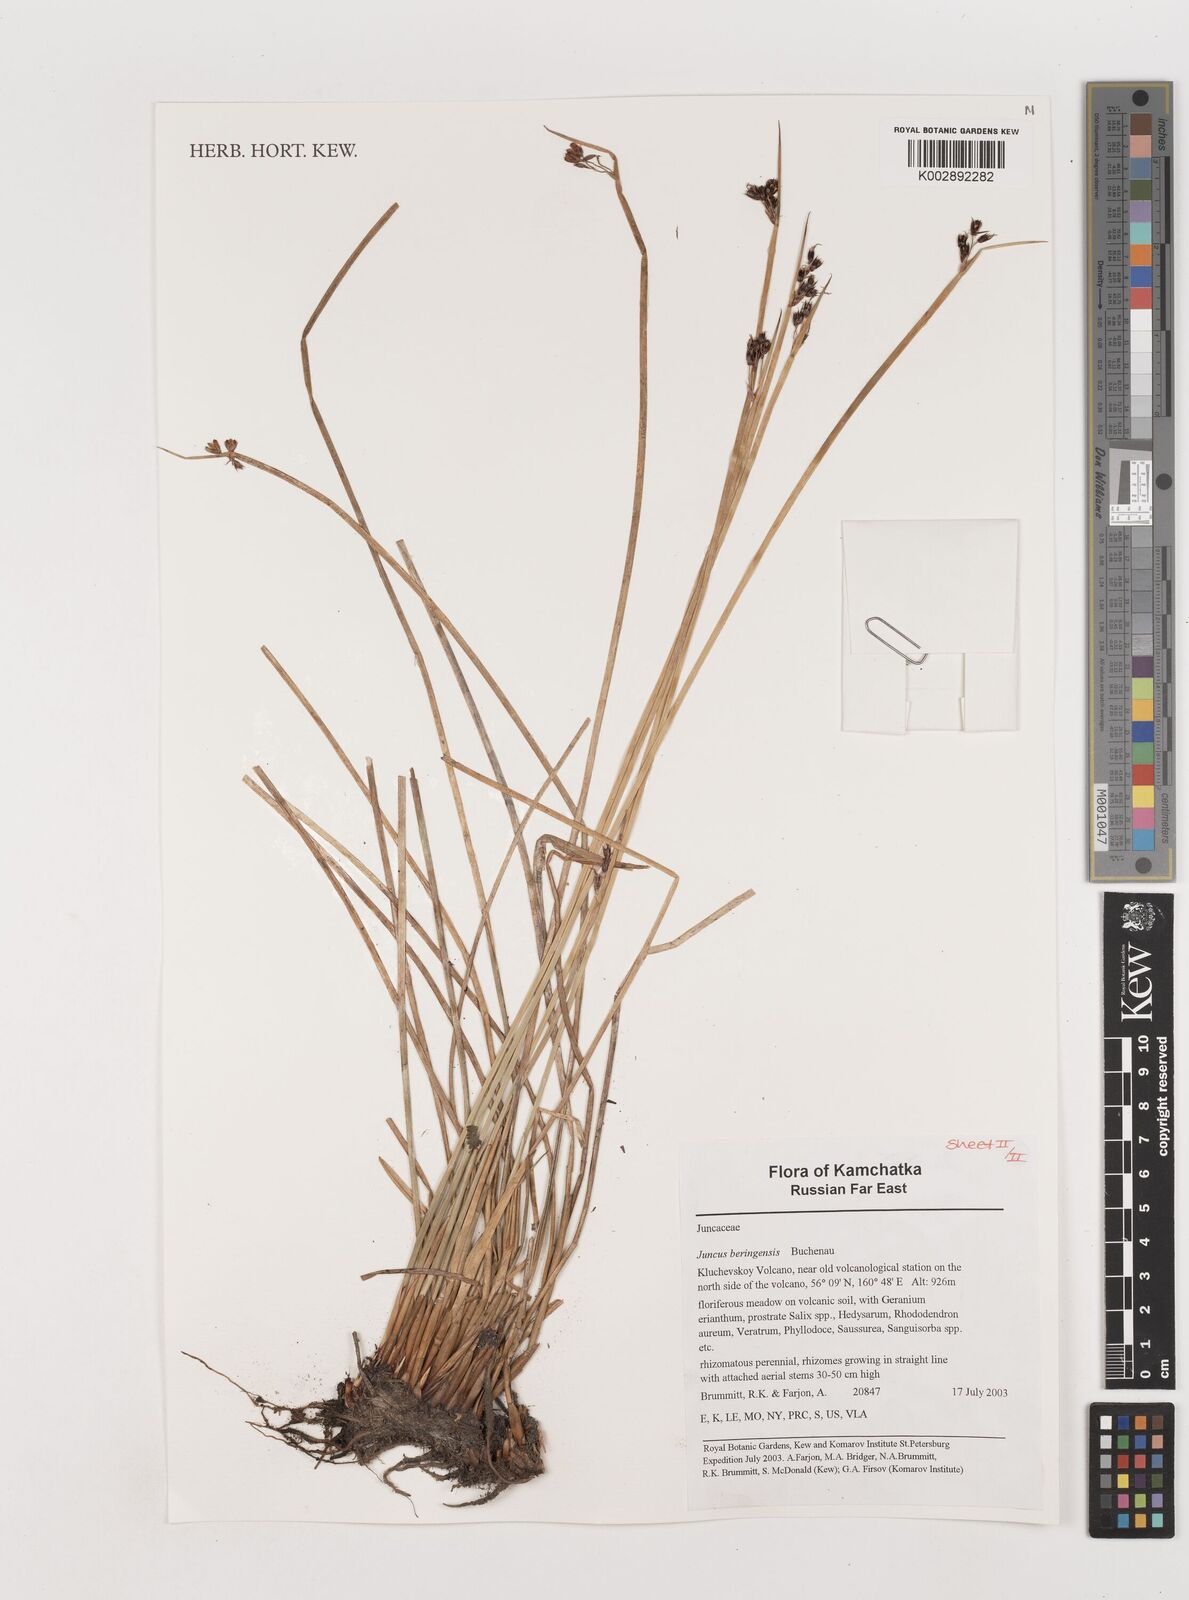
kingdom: Plantae
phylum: Tracheophyta
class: Liliopsida
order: Poales
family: Juncaceae
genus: Juncus
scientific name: Juncus beringensis
